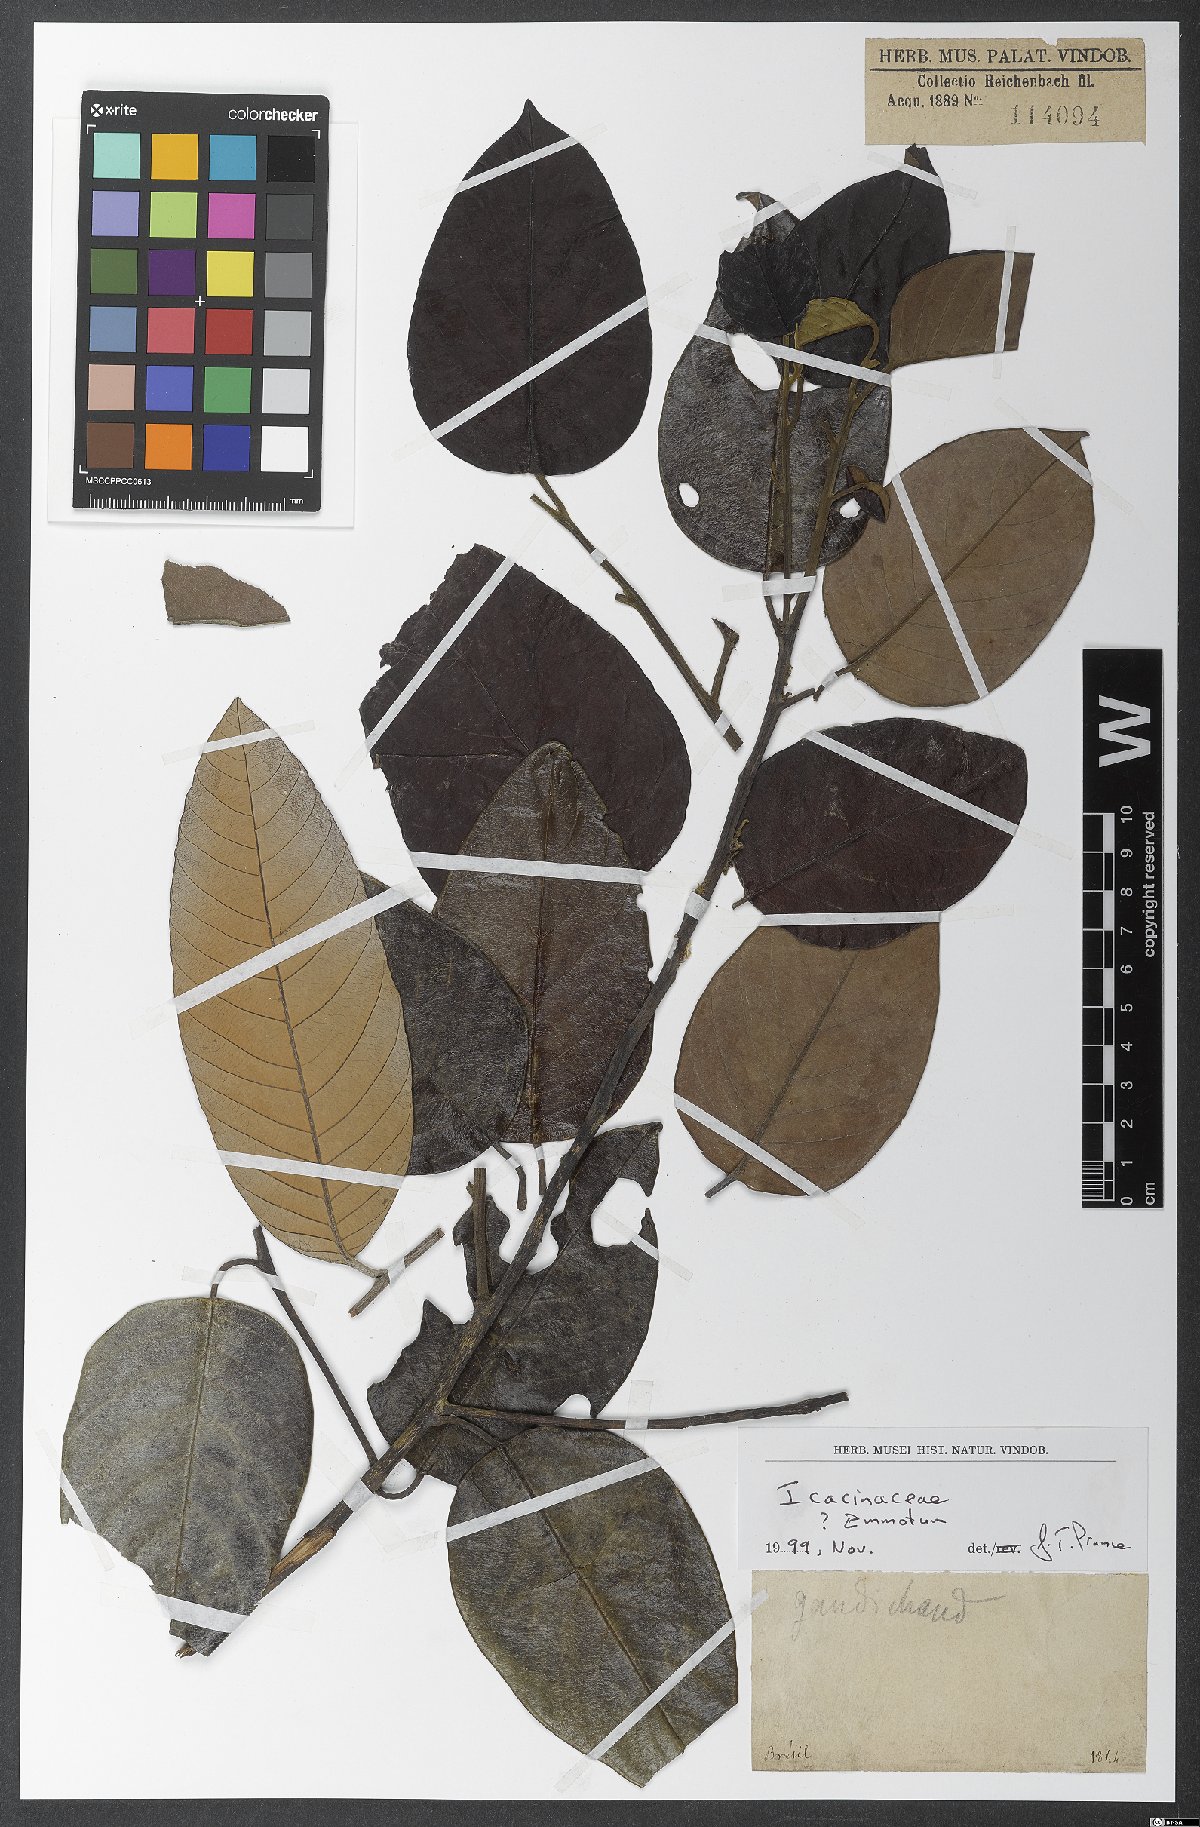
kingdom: Plantae
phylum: Tracheophyta
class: Magnoliopsida
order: Icacinales
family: Icacinaceae
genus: Emmotum
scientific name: Emmotum
